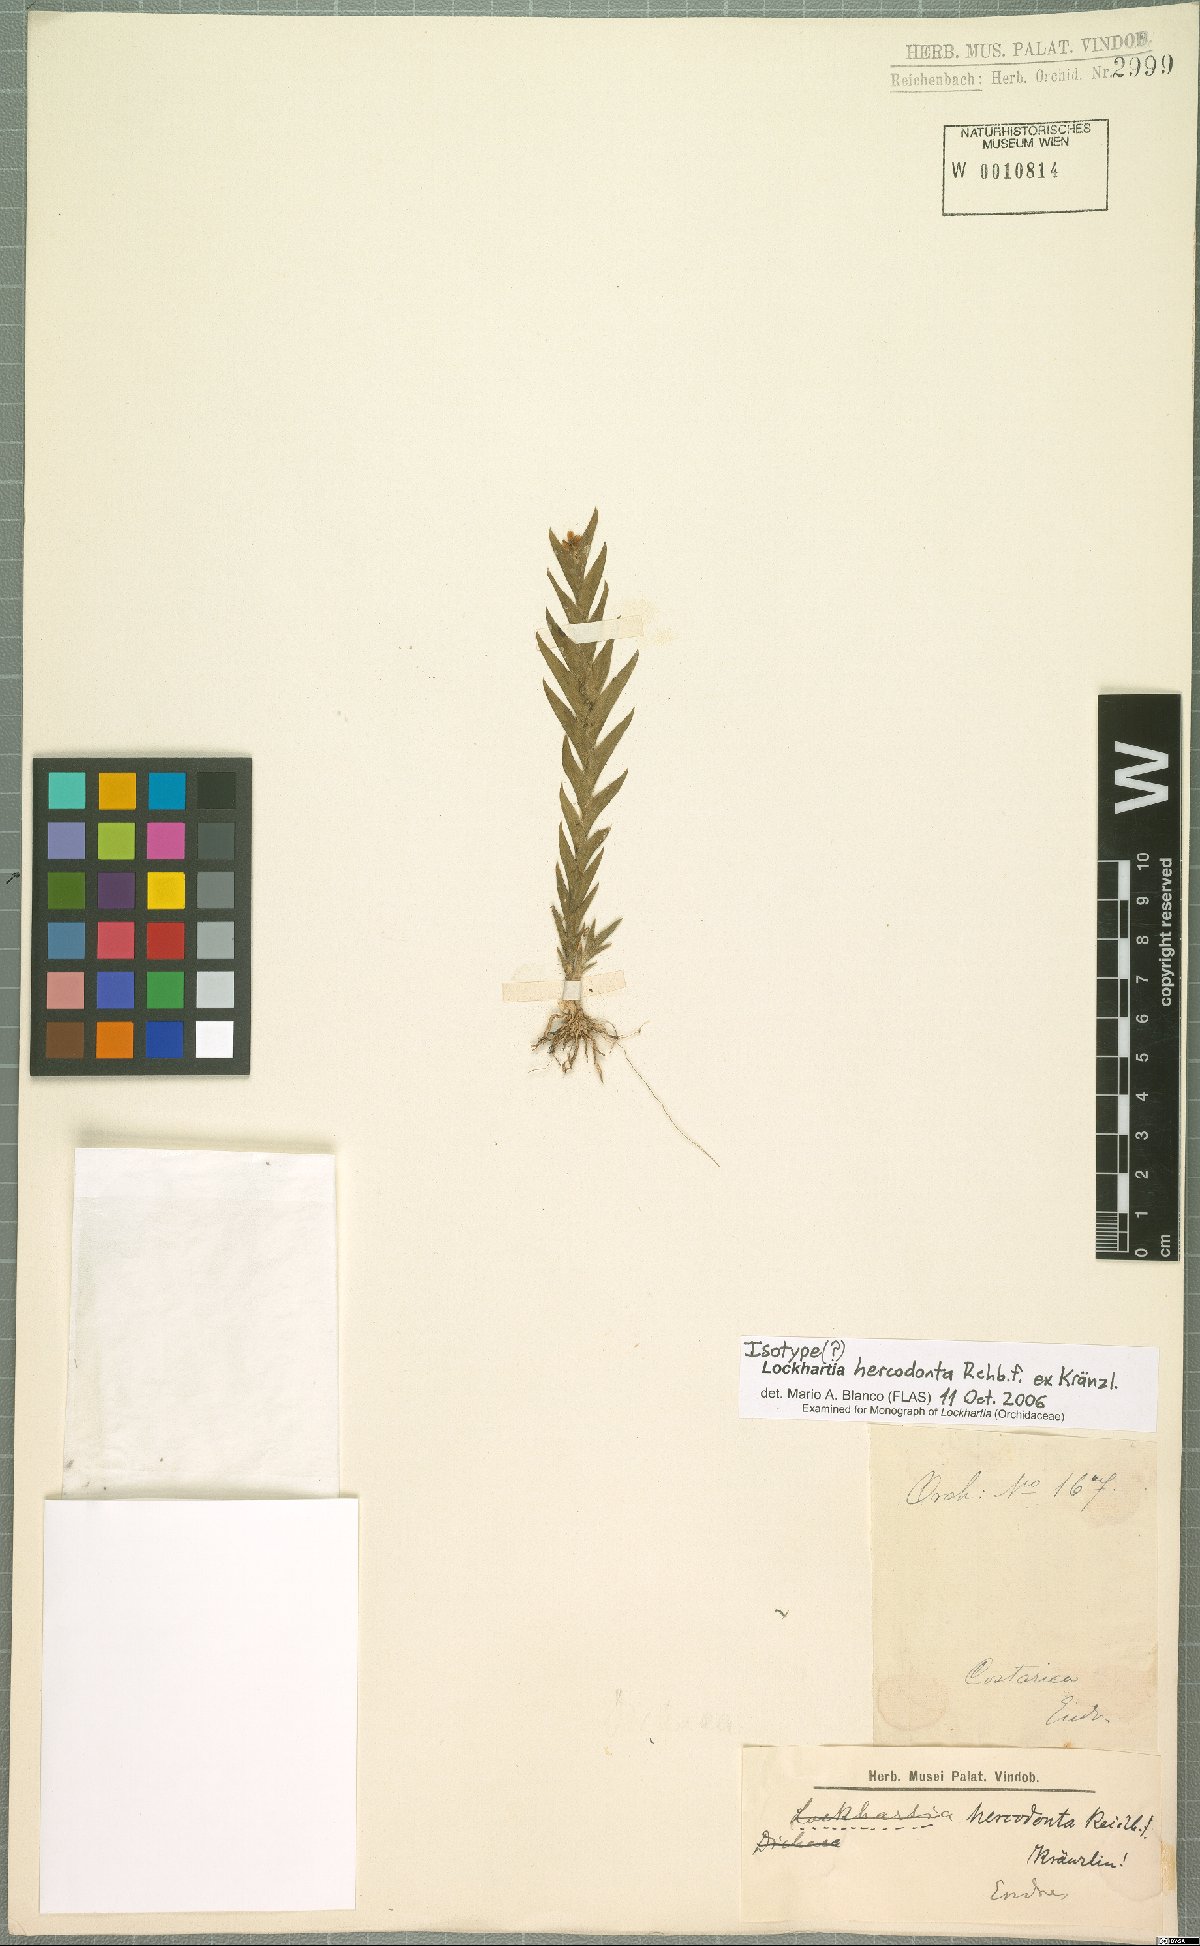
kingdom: Plantae
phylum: Tracheophyta
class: Liliopsida
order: Asparagales
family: Orchidaceae
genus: Lockhartia
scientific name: Lockhartia hercodonta
